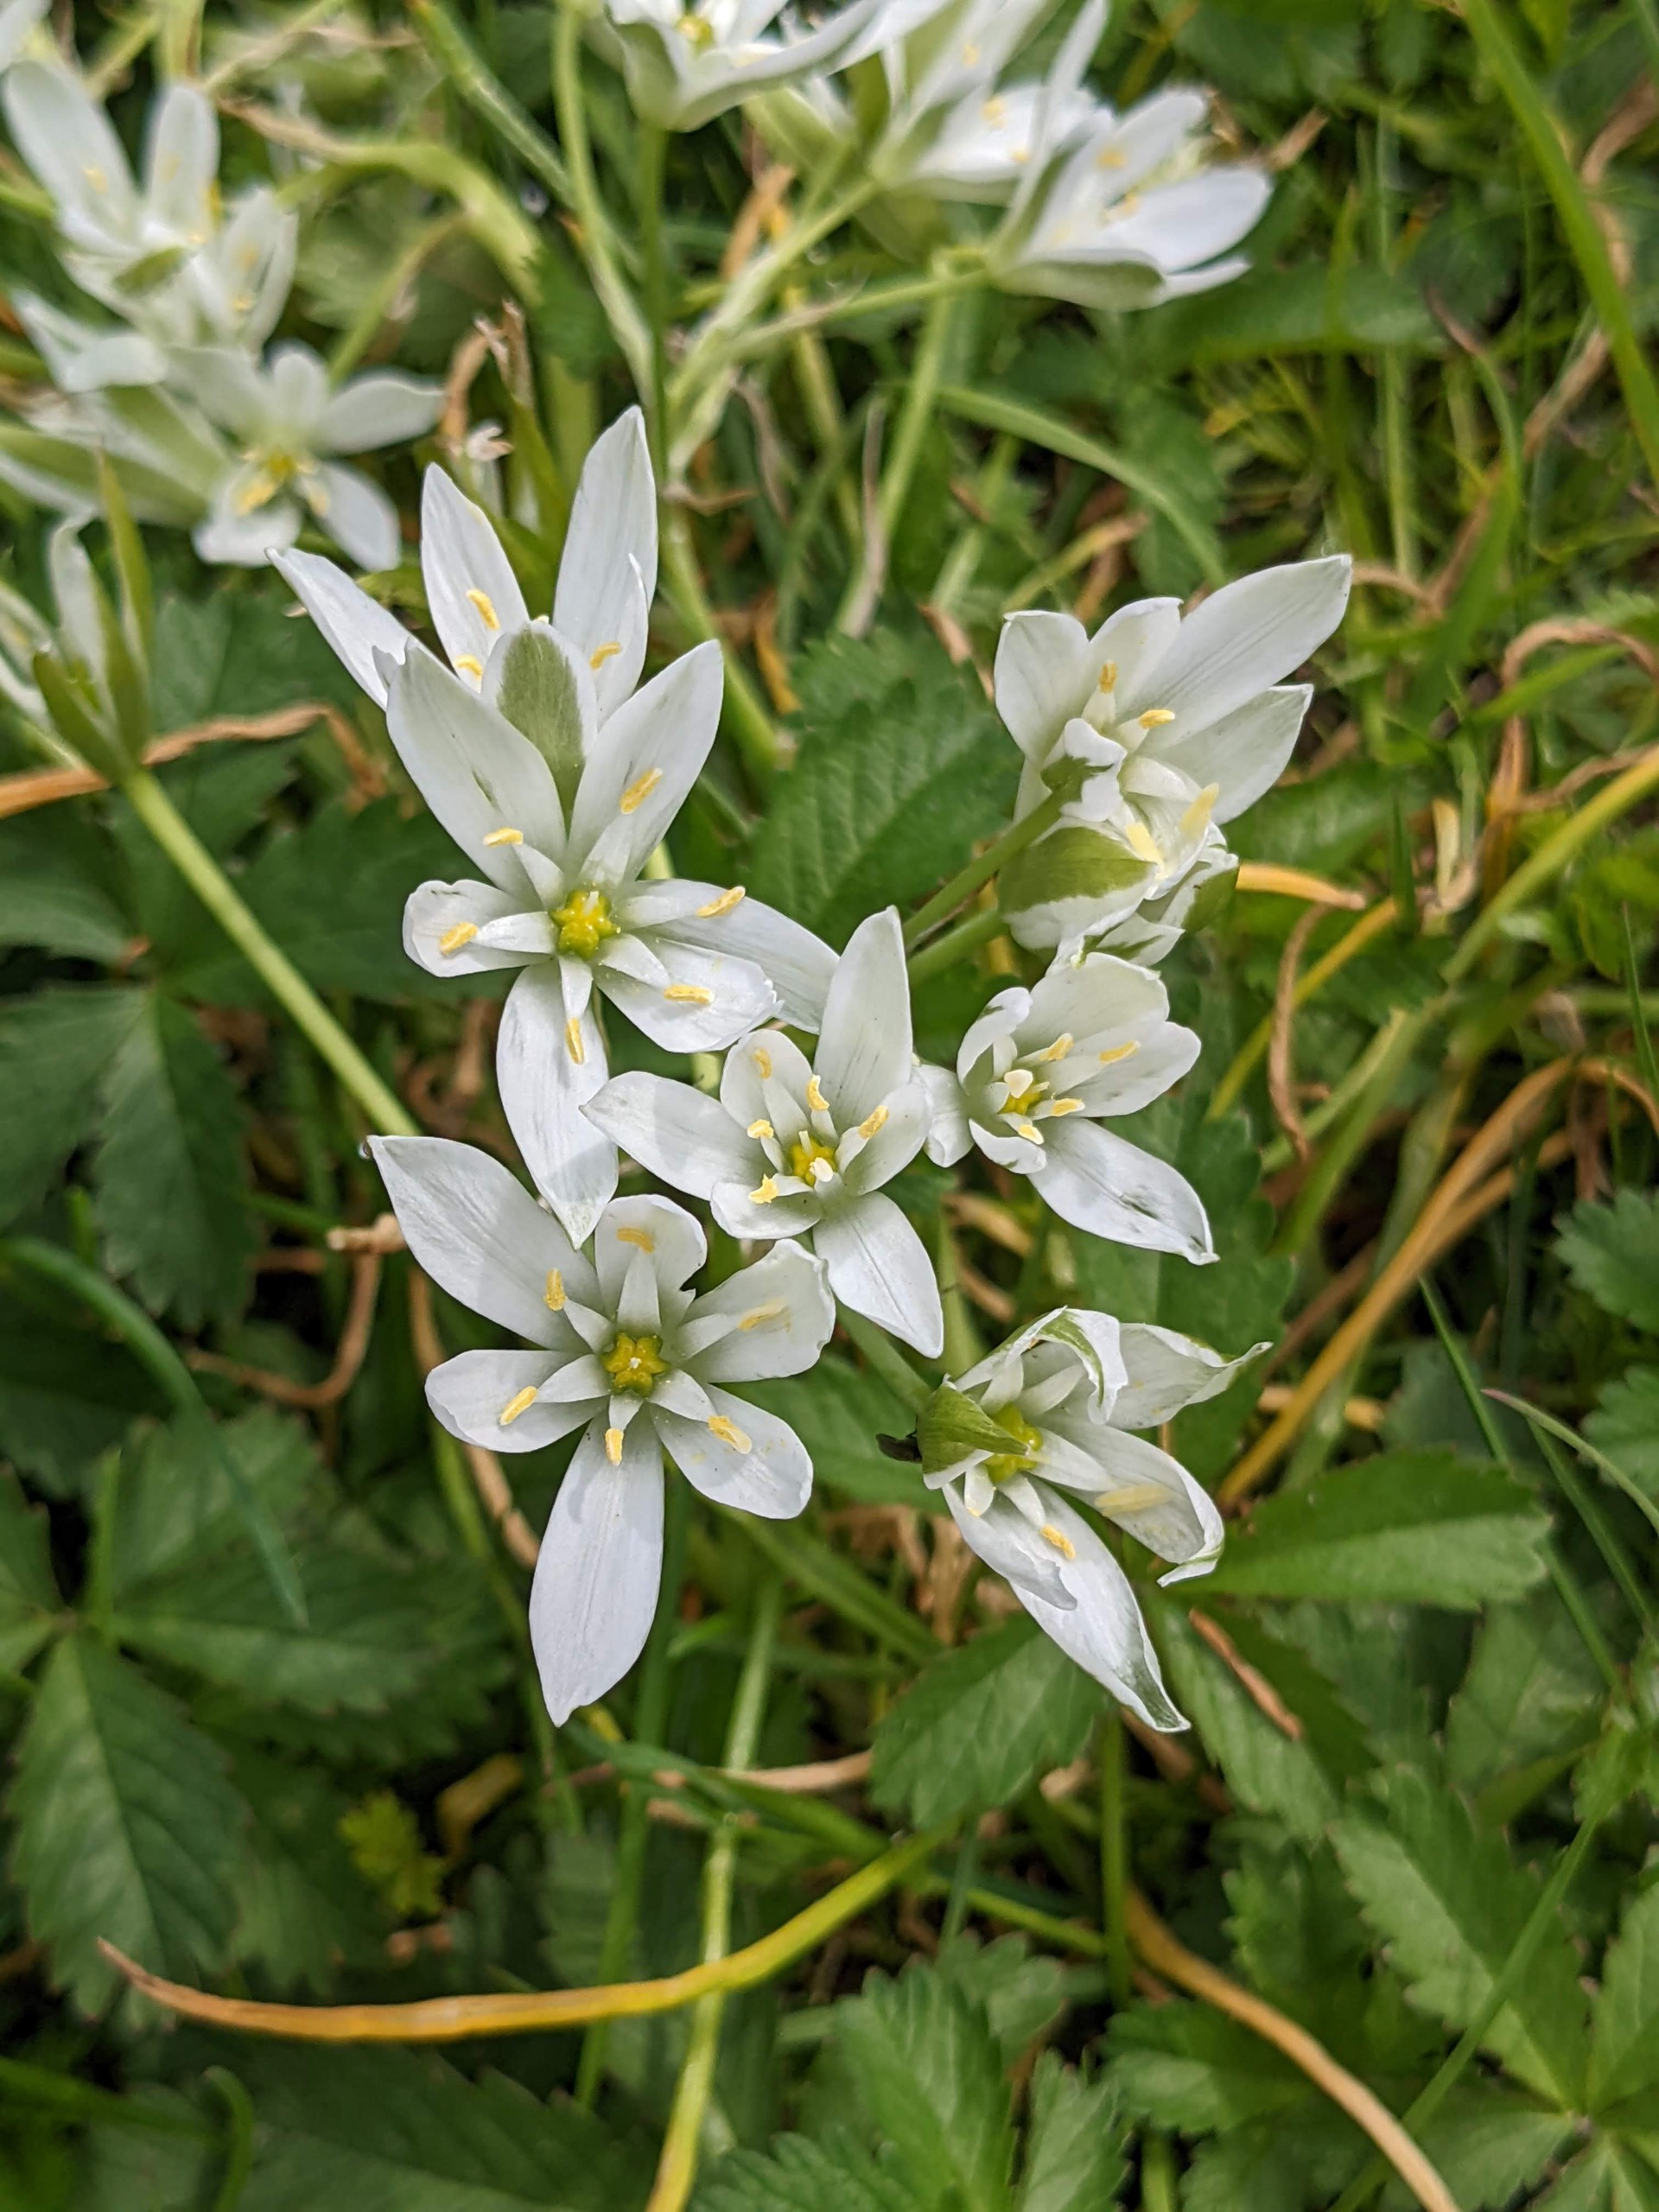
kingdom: Plantae
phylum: Tracheophyta
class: Liliopsida
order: Asparagales
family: Asparagaceae
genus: Ornithogalum
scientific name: Ornithogalum umbellatum
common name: Kost-fuglemælk
